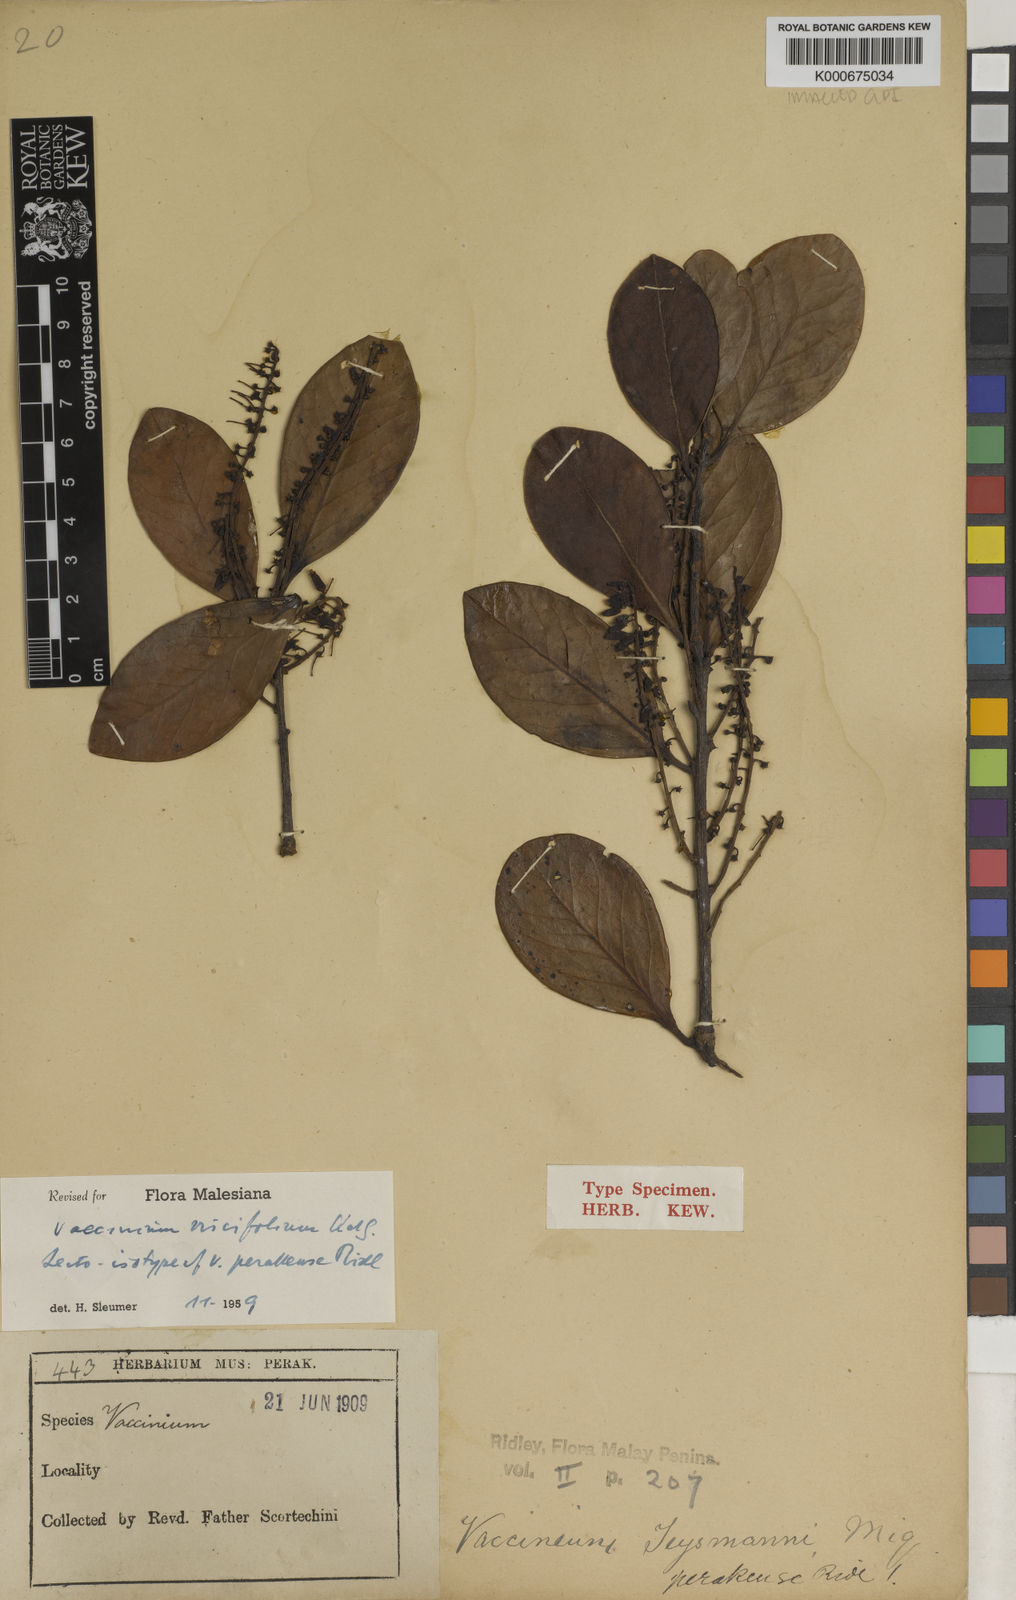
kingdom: Plantae
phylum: Tracheophyta
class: Magnoliopsida
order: Ericales
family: Ericaceae
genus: Vaccinium
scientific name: Vaccinium viscifolium
